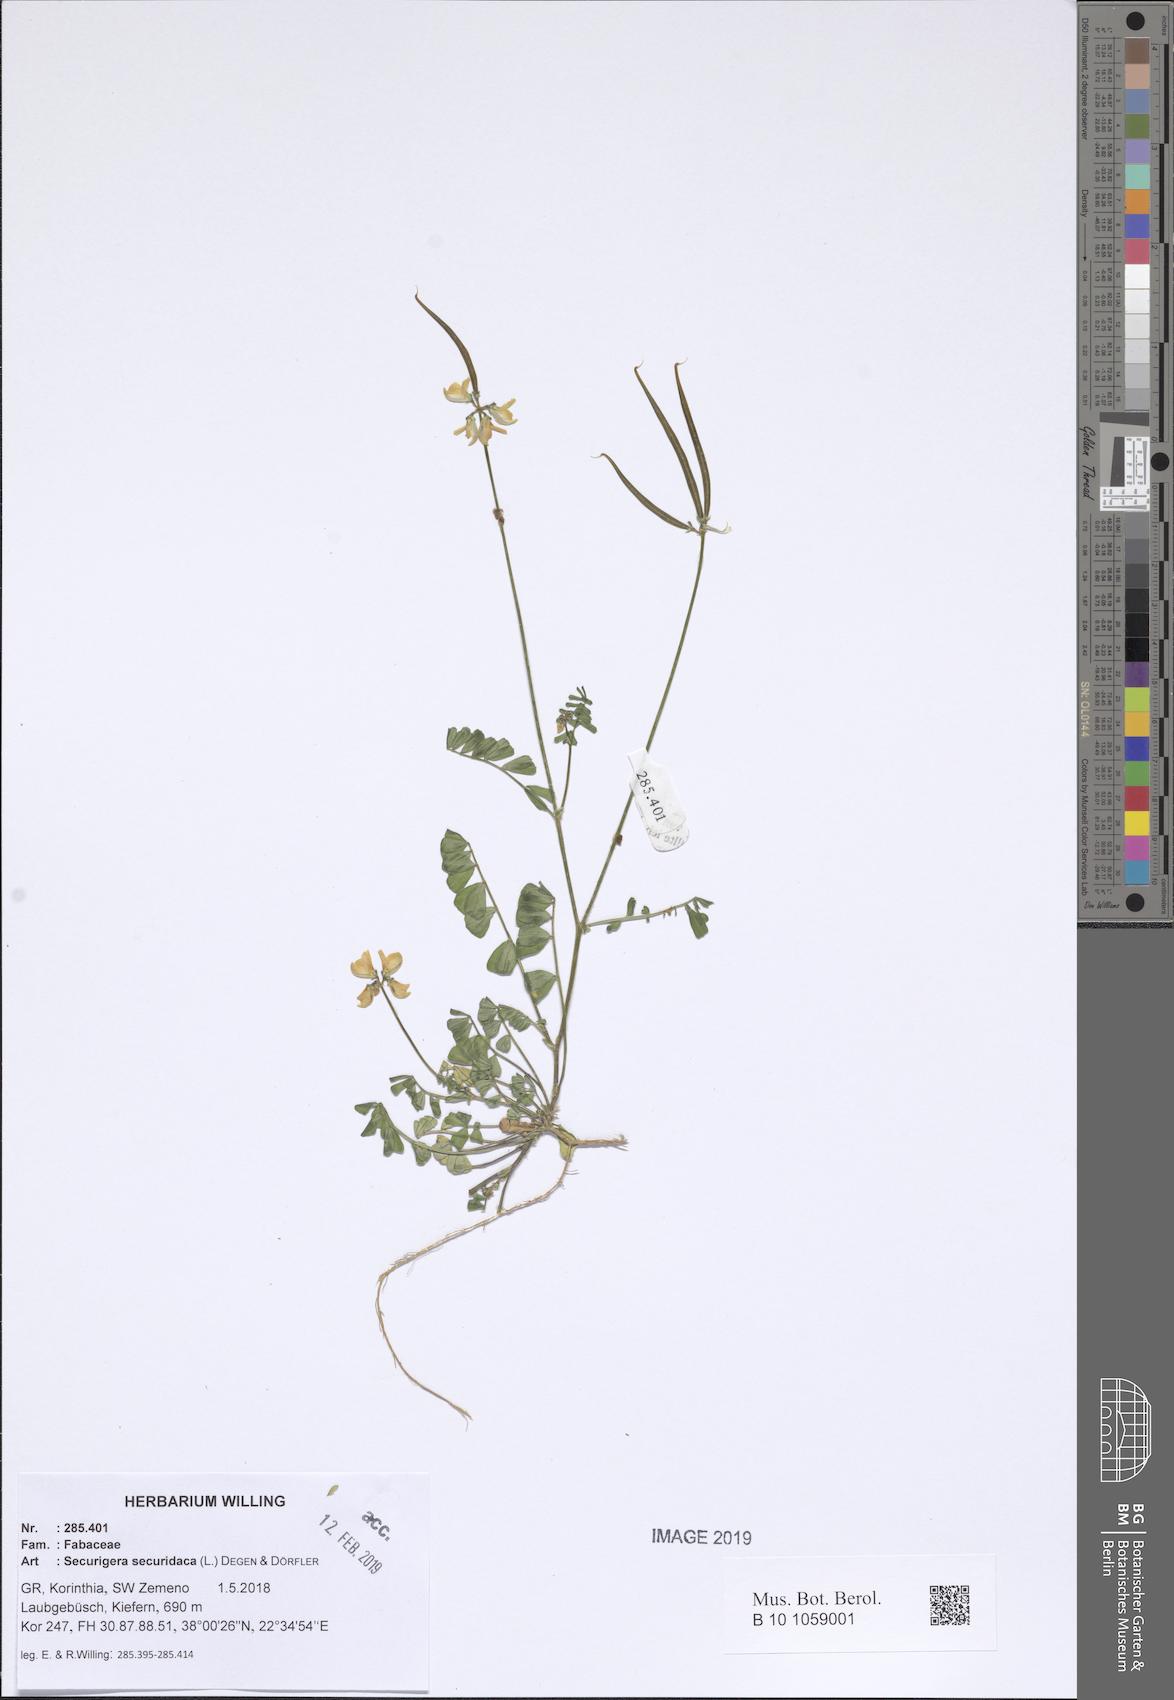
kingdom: Plantae
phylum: Tracheophyta
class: Magnoliopsida
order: Fabales
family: Fabaceae
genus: Coronilla
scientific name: Coronilla securidaca
